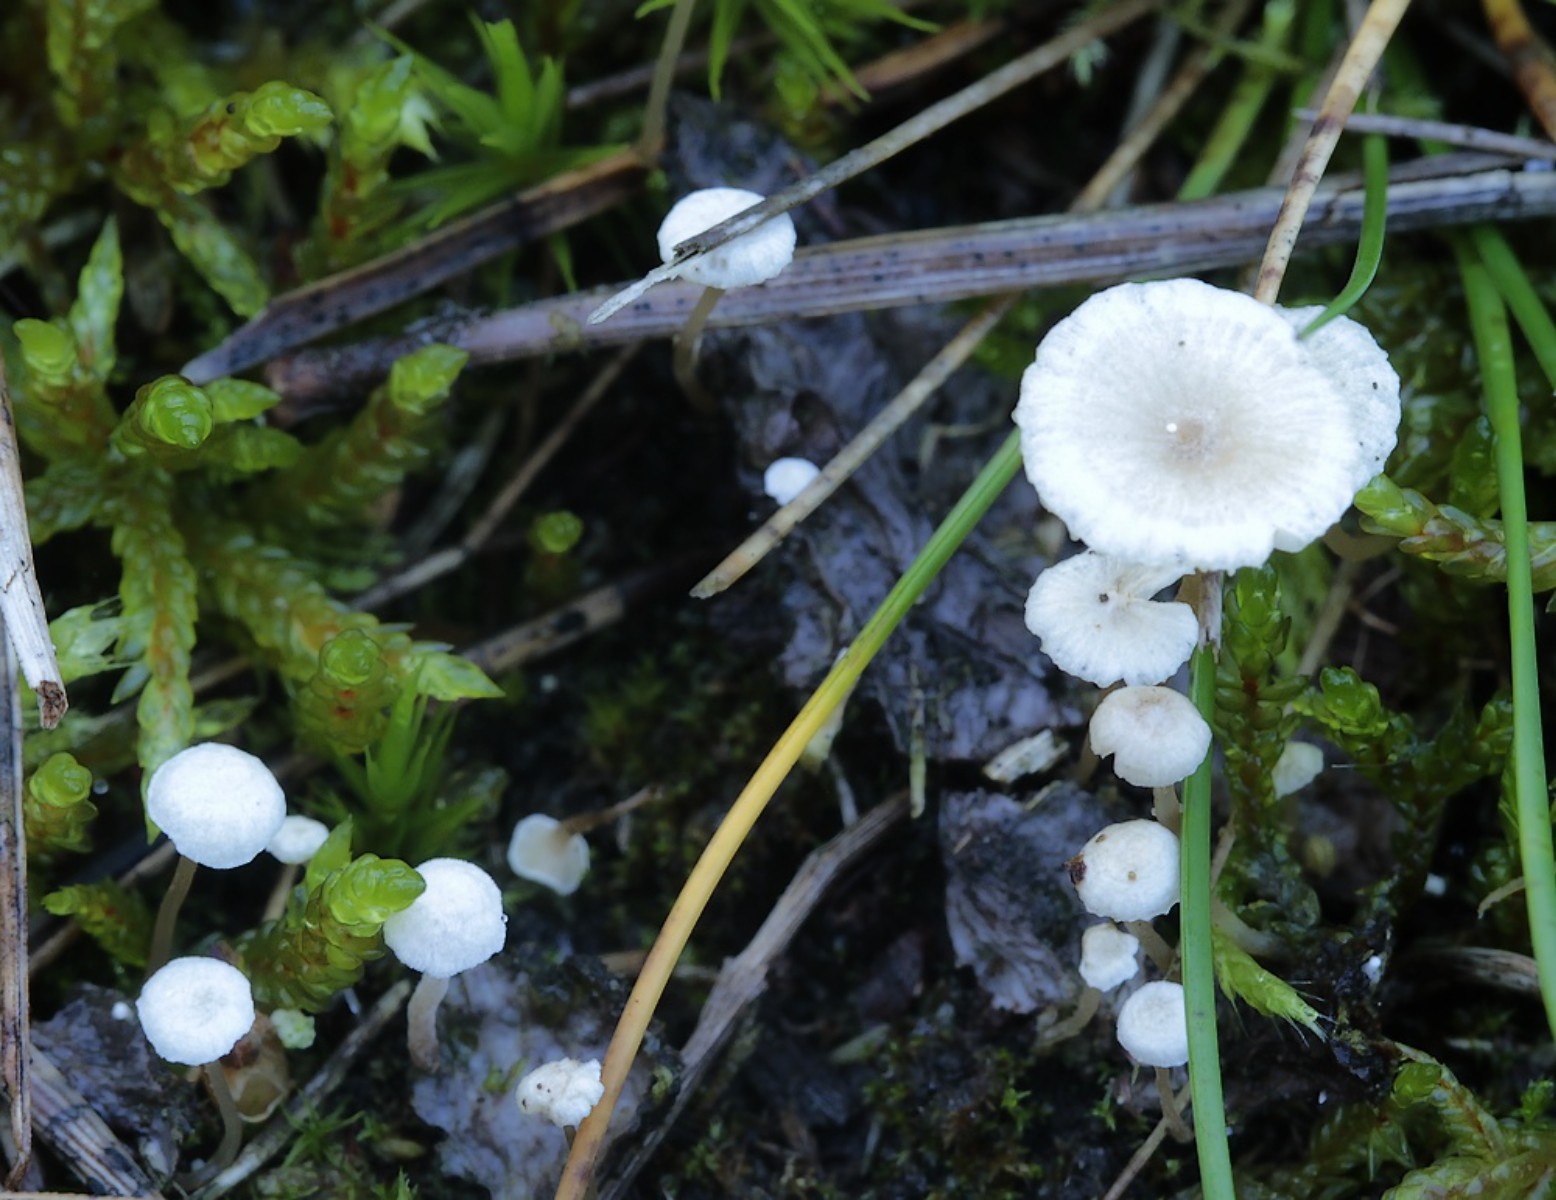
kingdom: Fungi
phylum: Basidiomycota
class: Agaricomycetes
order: Agaricales
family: Tricholomataceae
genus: Collybia
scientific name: Collybia cirrhata
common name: silke-lighat
